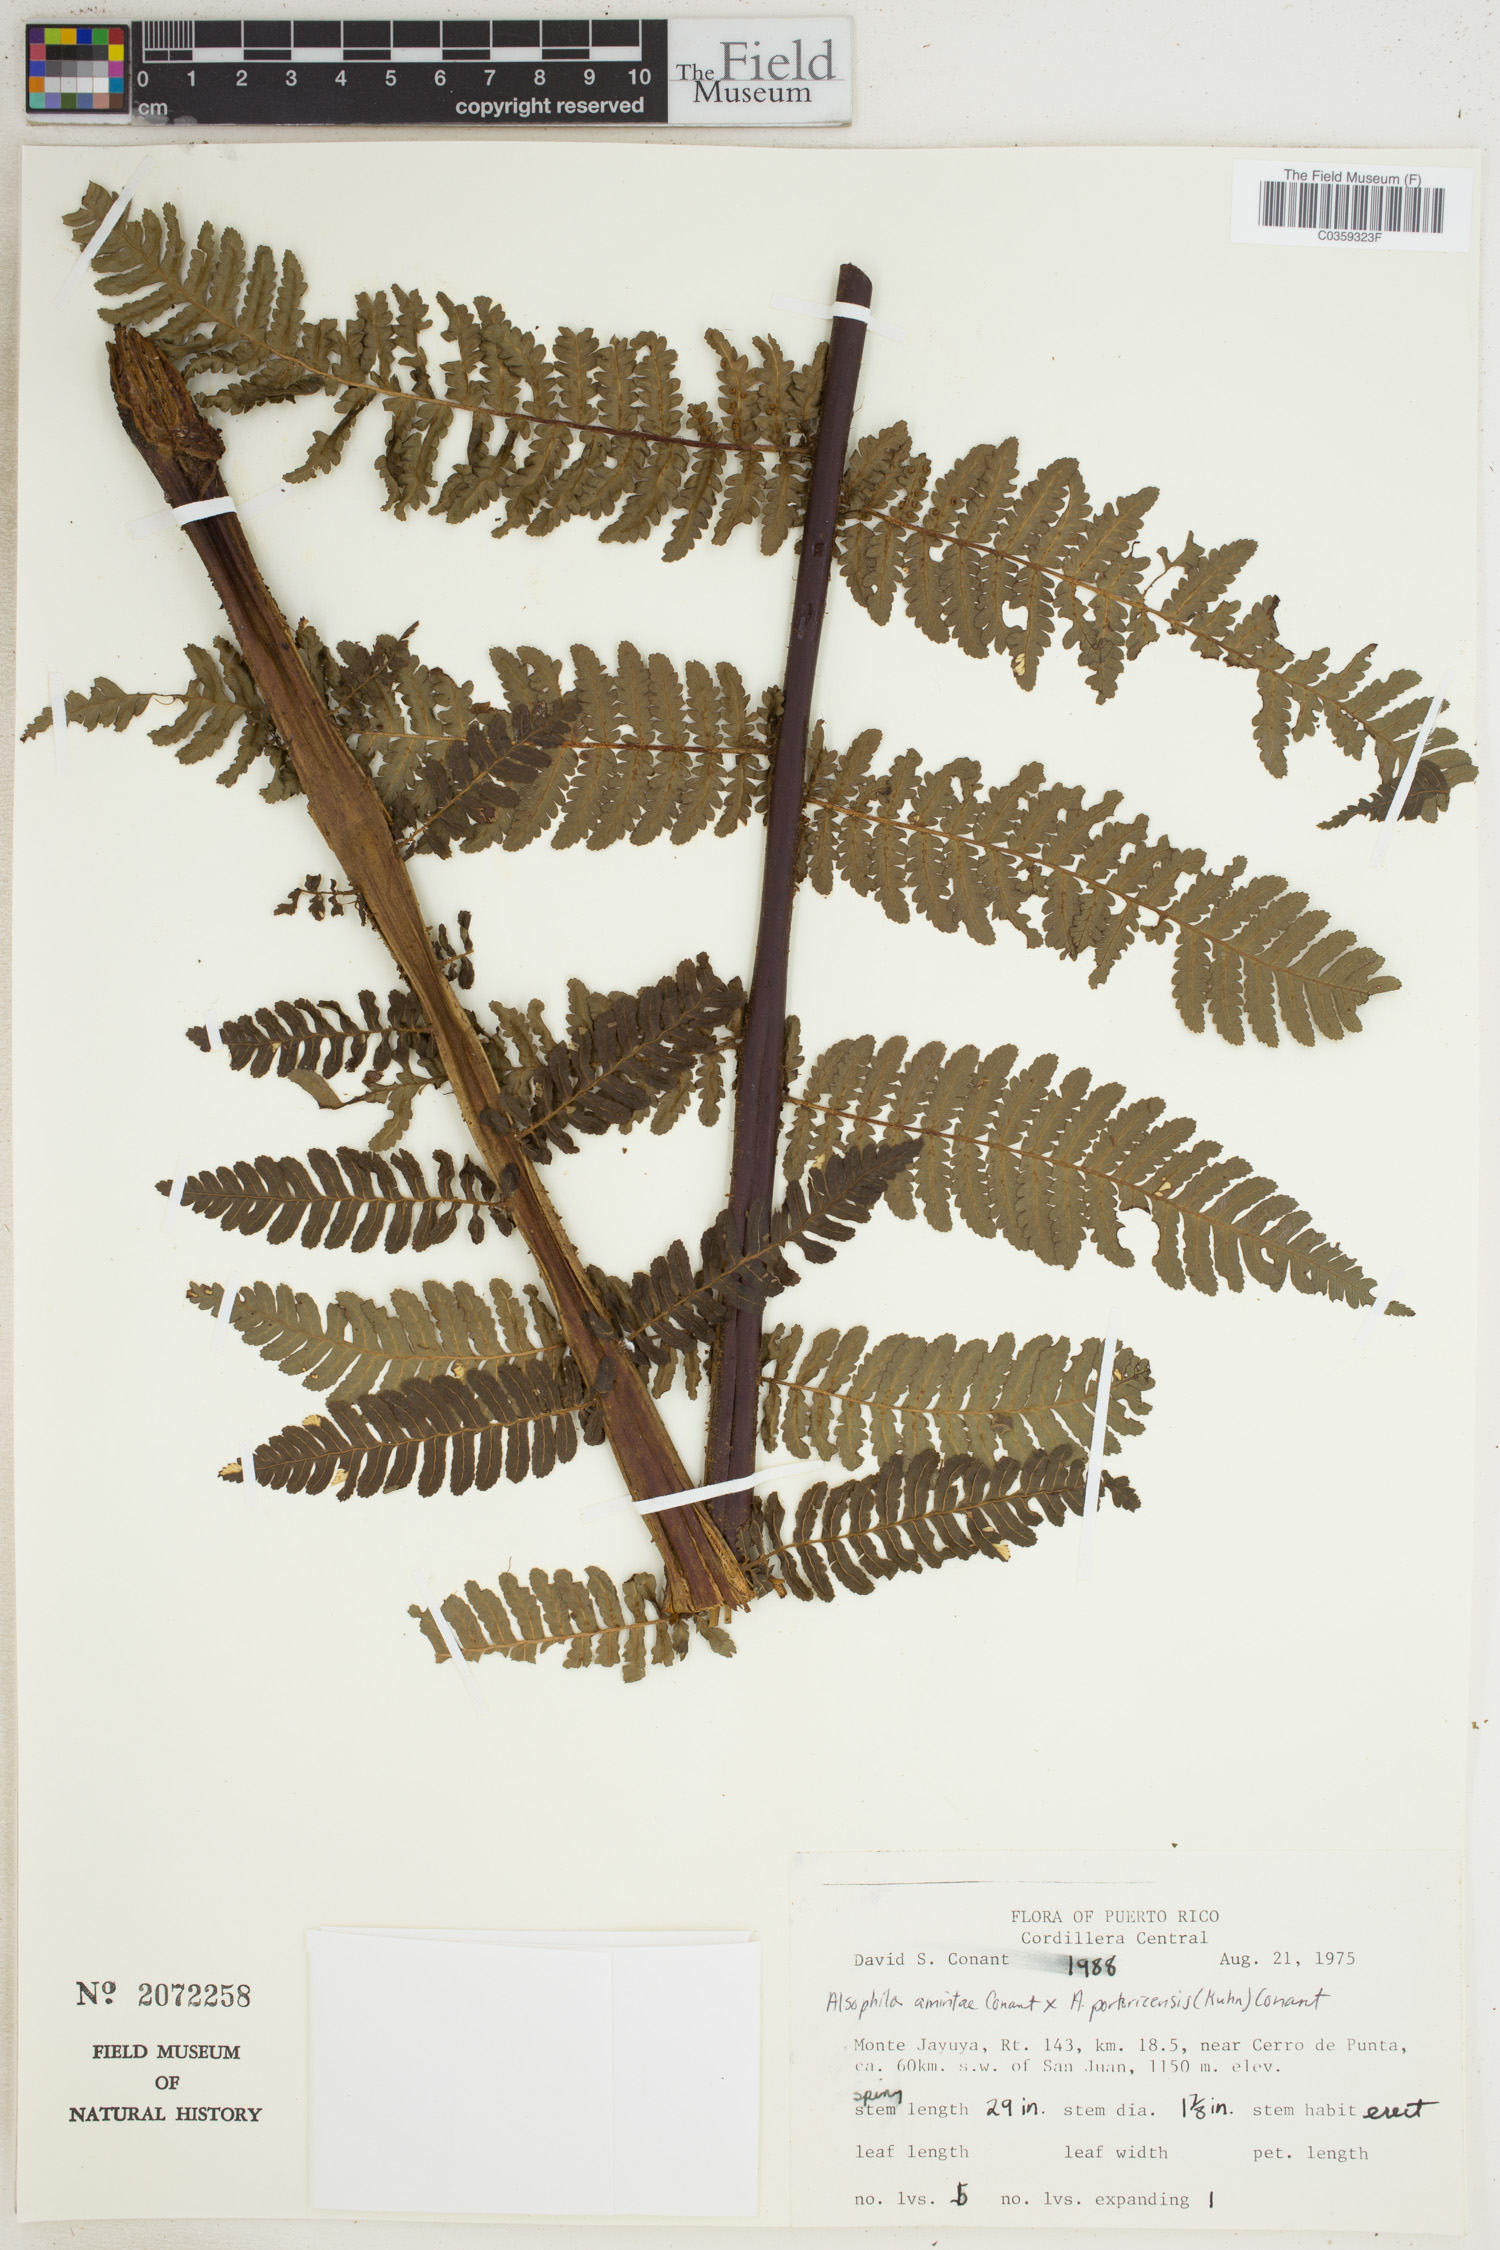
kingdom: Plantae
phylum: Tracheophyta
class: Polypodiopsida
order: Cyatheales
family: Cyatheaceae
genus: Alsophila
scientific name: Alsophila
